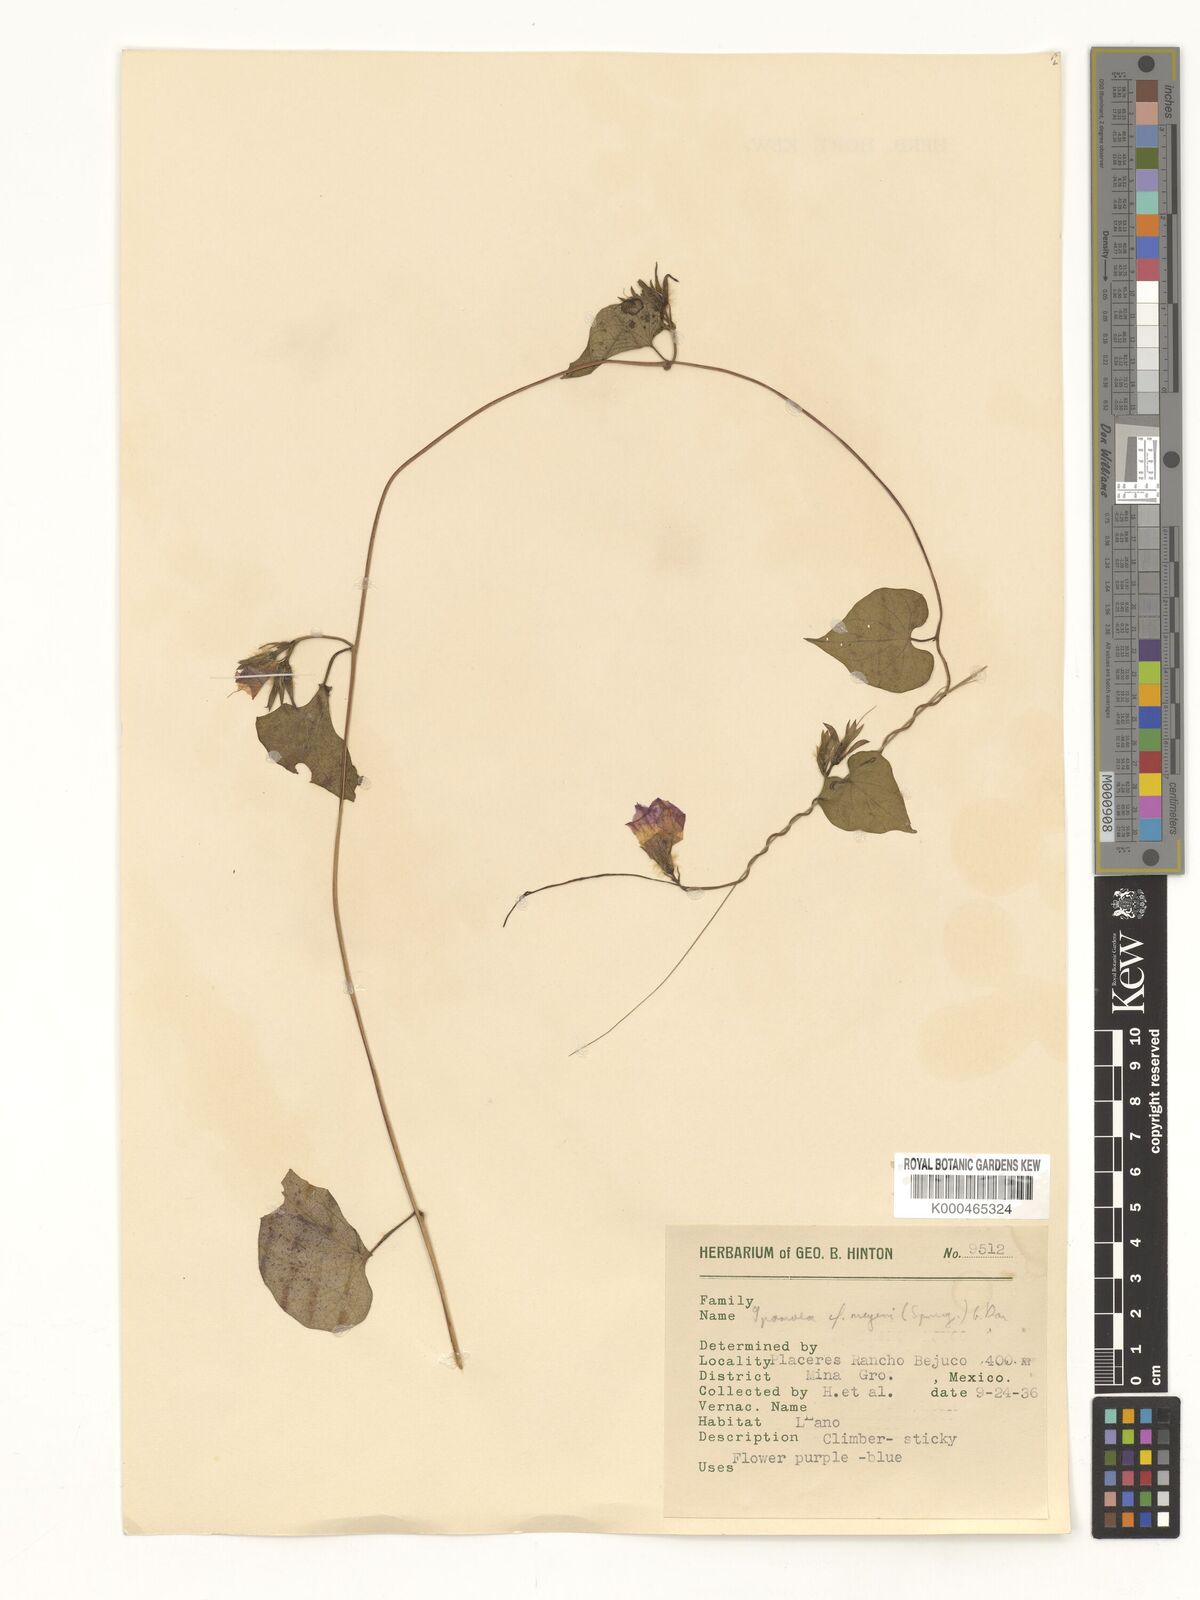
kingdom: Plantae
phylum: Tracheophyta
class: Magnoliopsida
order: Solanales
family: Convolvulaceae
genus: Ipomoea
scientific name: Ipomoea meyeri
